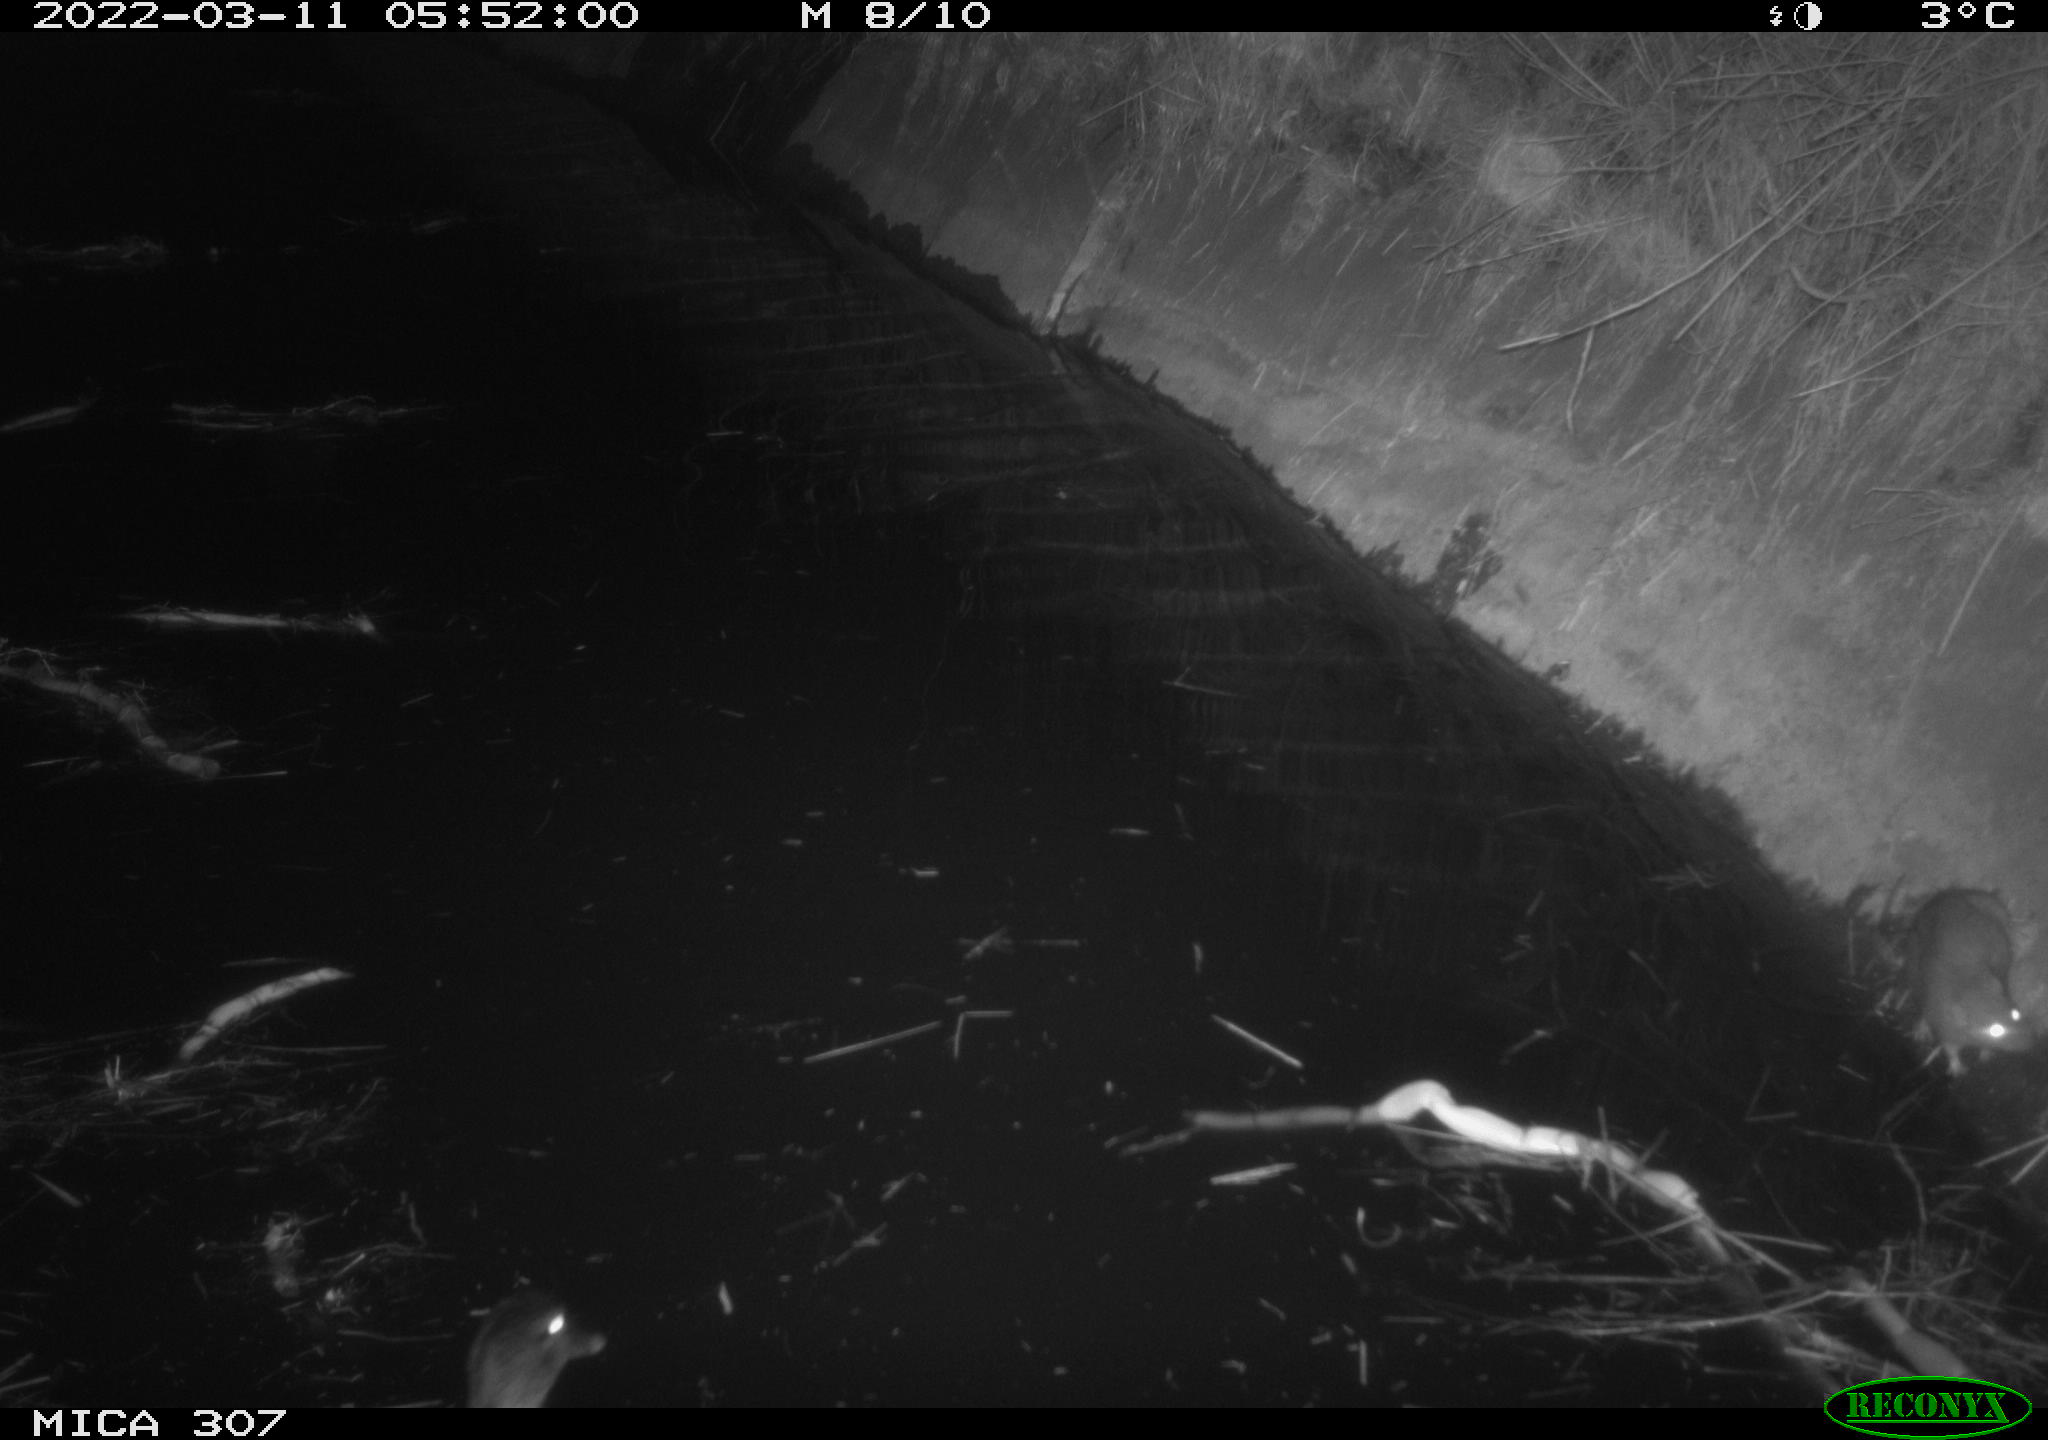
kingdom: Animalia
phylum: Chordata
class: Mammalia
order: Rodentia
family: Muridae
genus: Rattus
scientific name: Rattus norvegicus
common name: Brown rat
